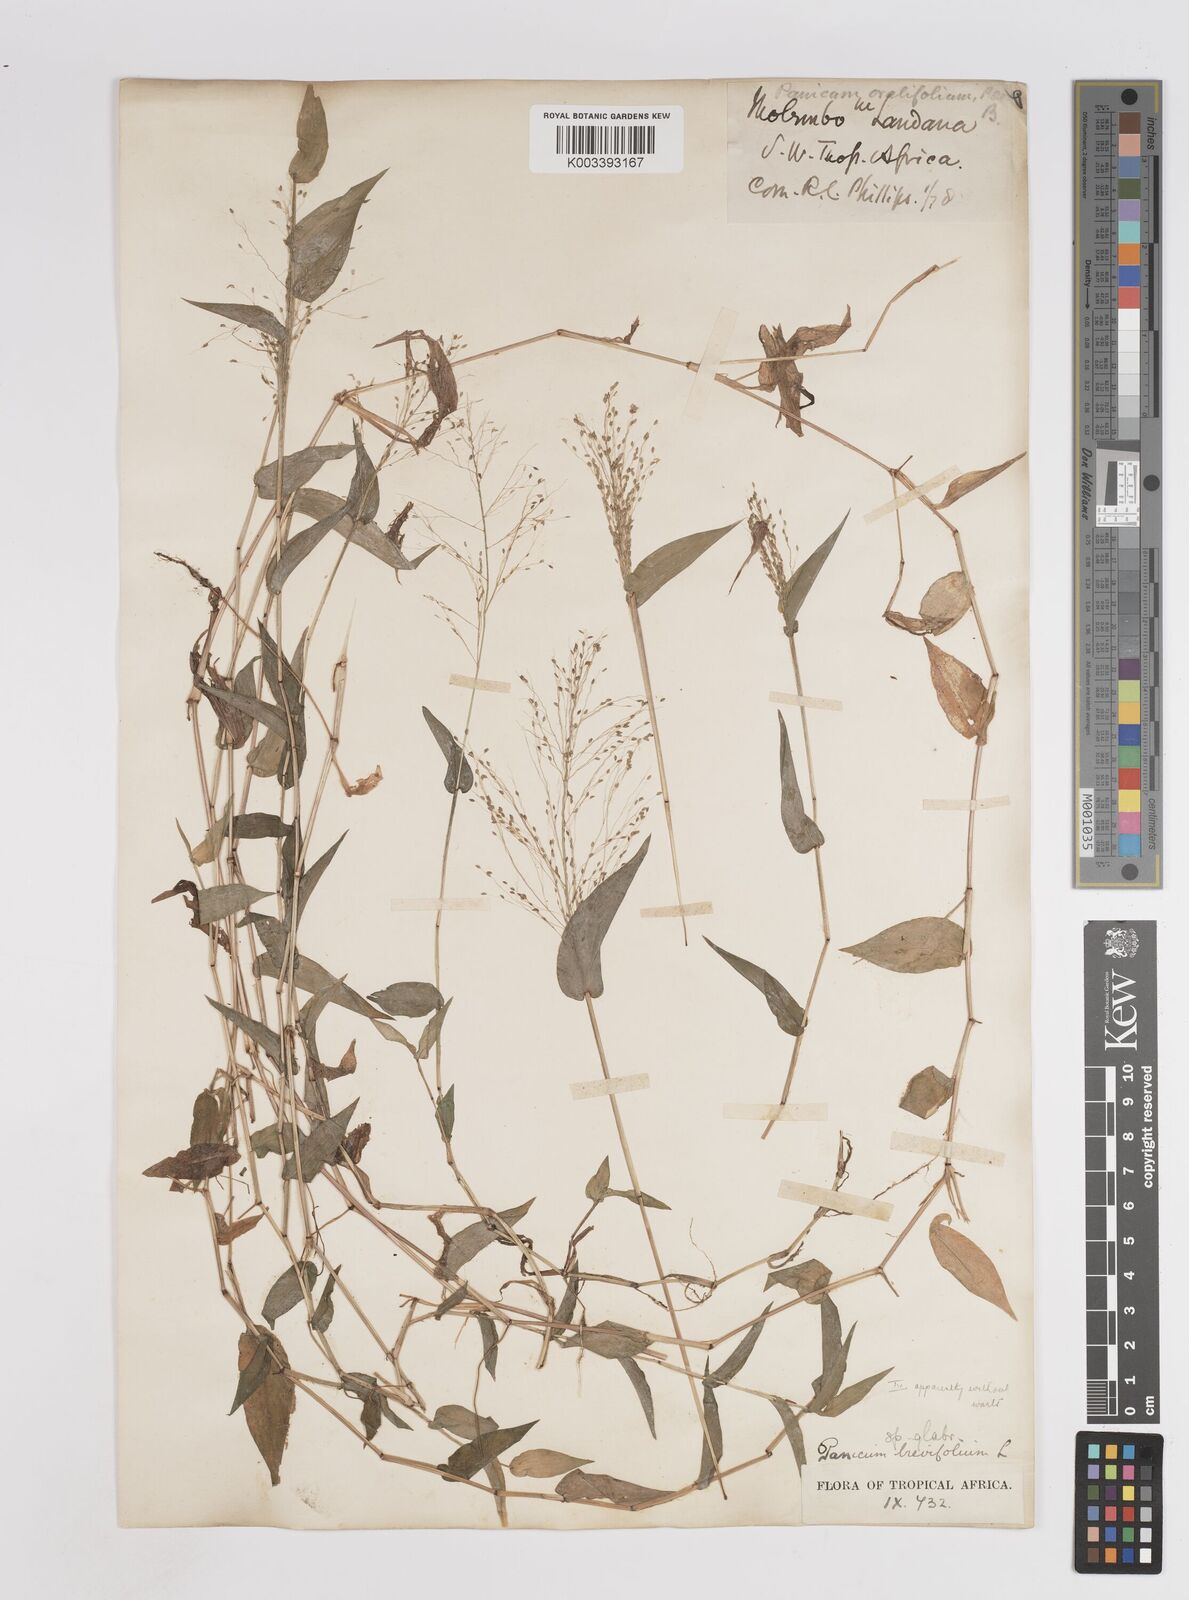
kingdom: Plantae
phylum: Tracheophyta
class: Liliopsida
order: Poales
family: Poaceae
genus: Panicum
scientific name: Panicum brevifolium
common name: Shortleaf panic grass
